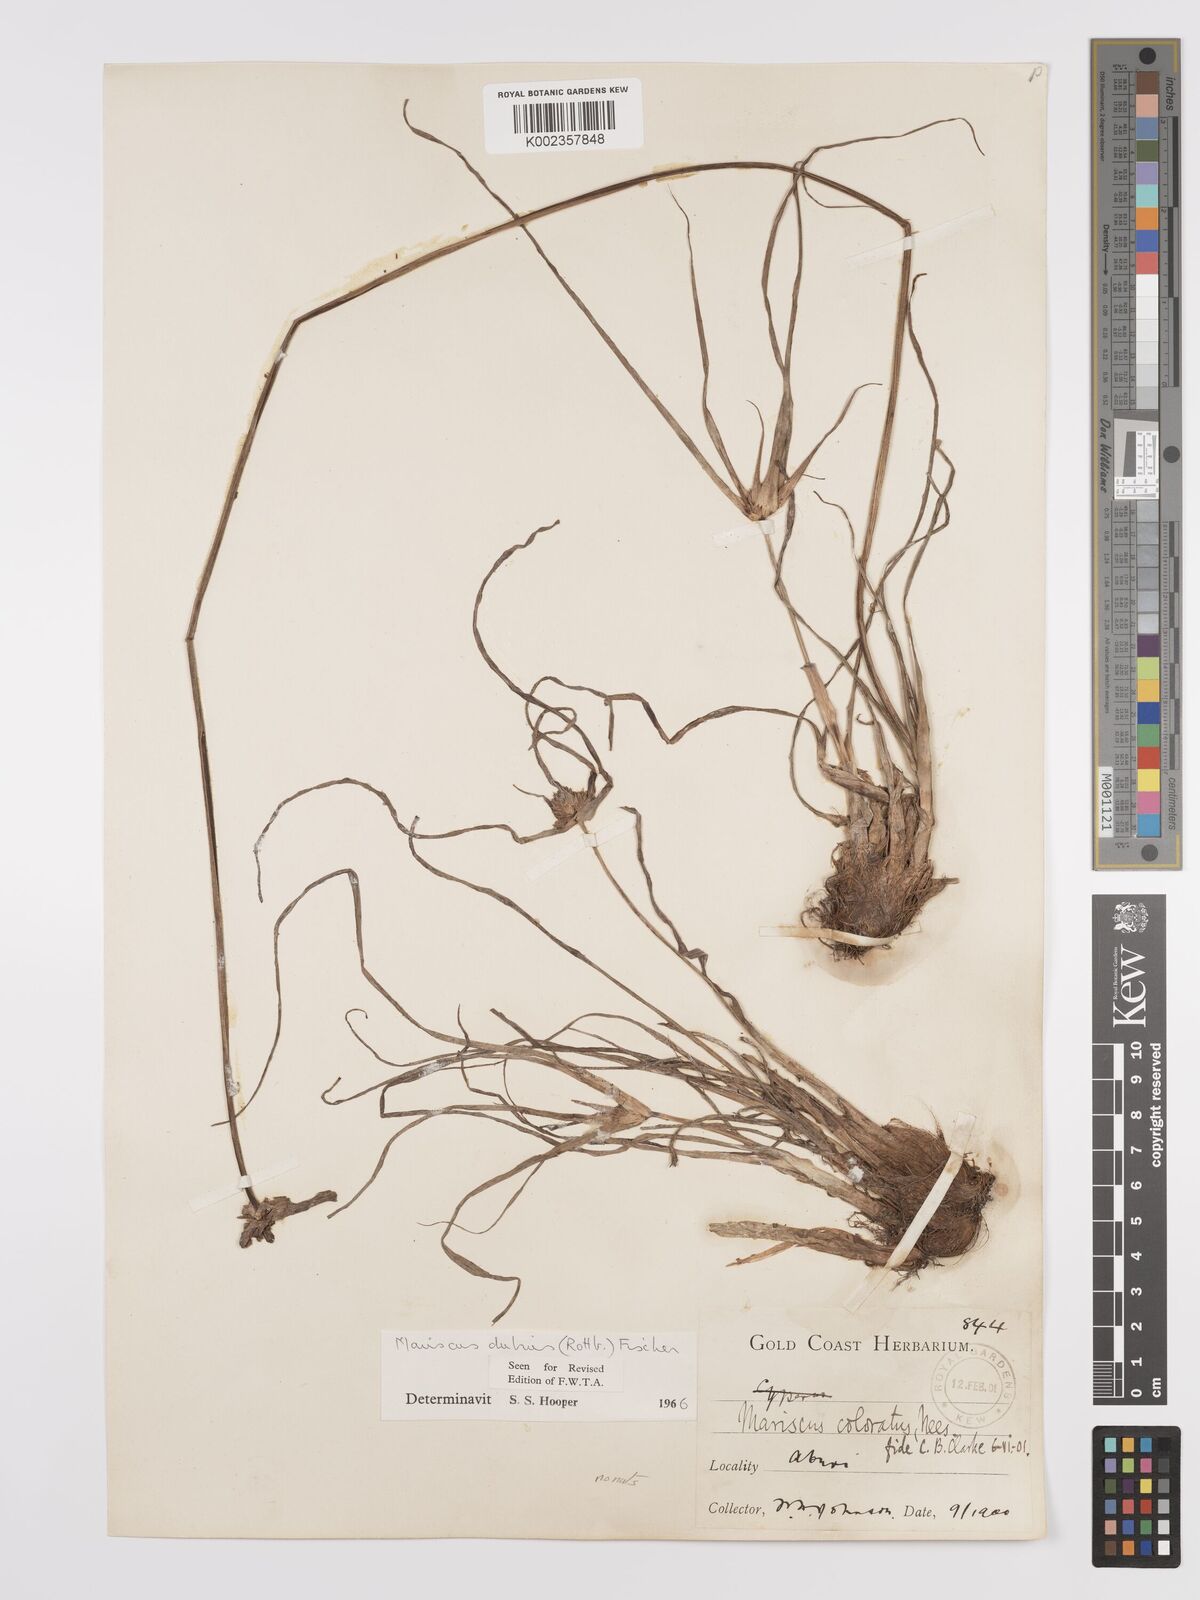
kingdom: Plantae
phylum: Tracheophyta
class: Liliopsida
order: Poales
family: Cyperaceae
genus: Cyperus
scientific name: Cyperus dubius
